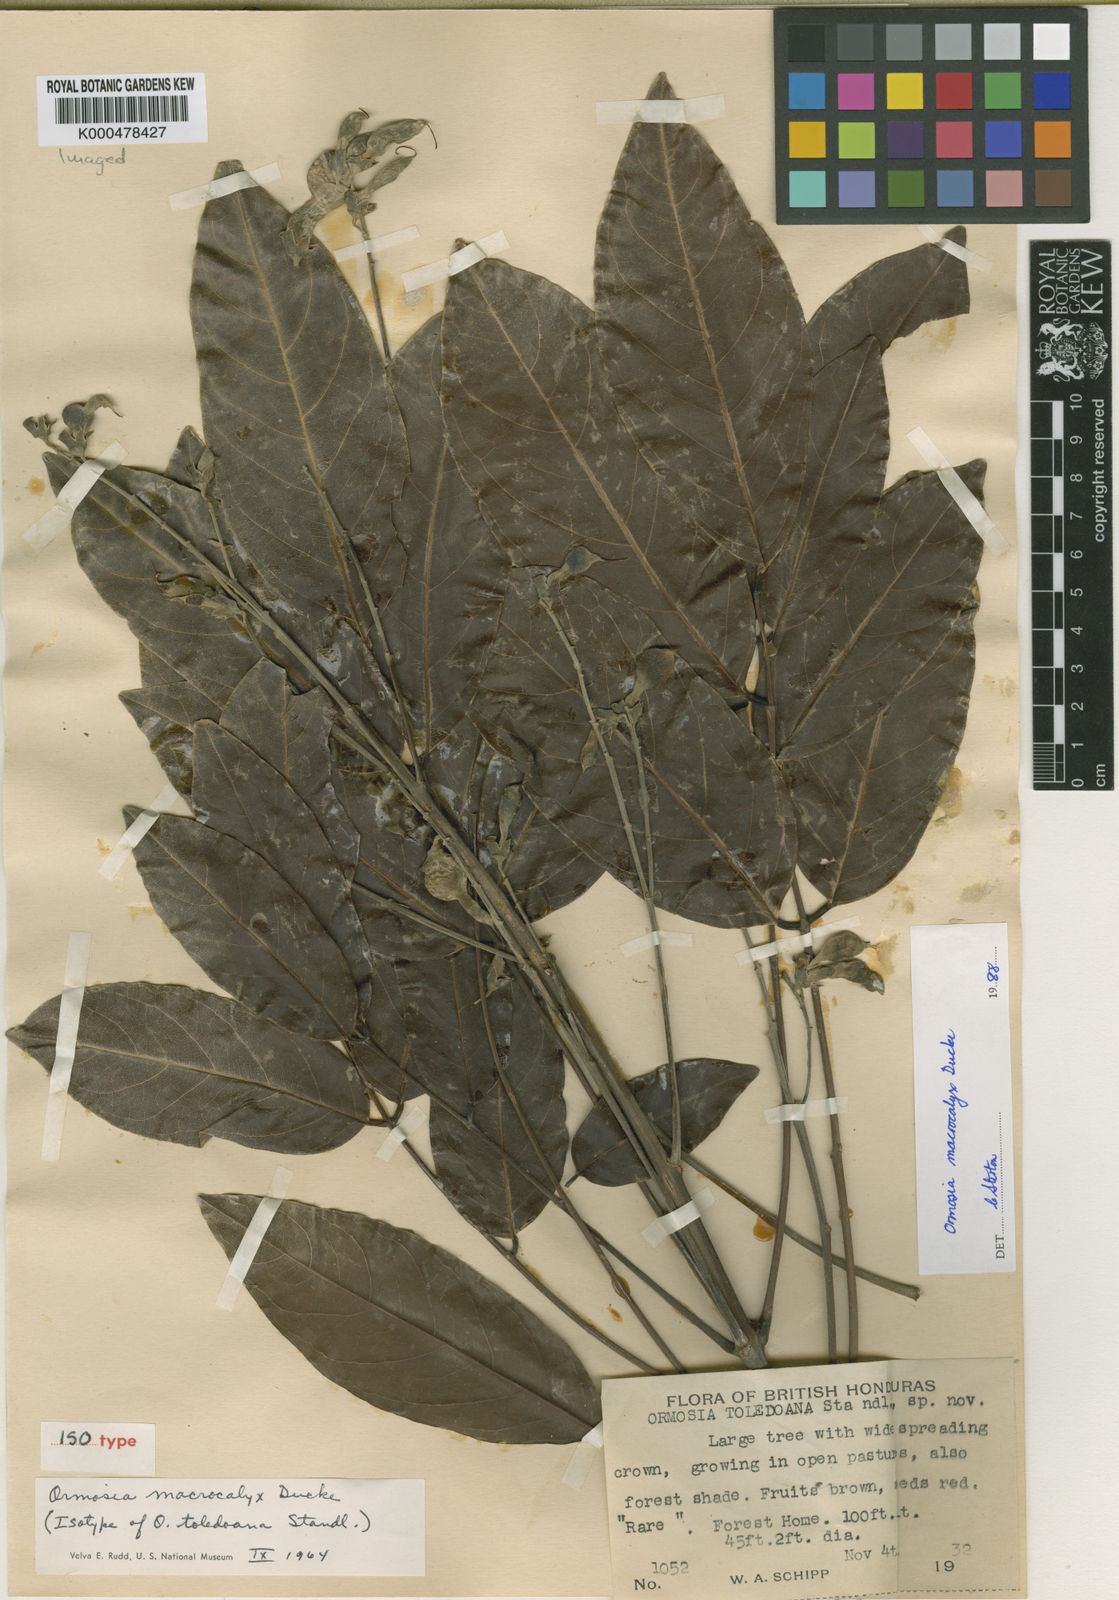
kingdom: Plantae
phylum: Tracheophyta
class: Magnoliopsida
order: Fabales
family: Fabaceae
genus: Ormosia
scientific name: Ormosia macrocalyx
